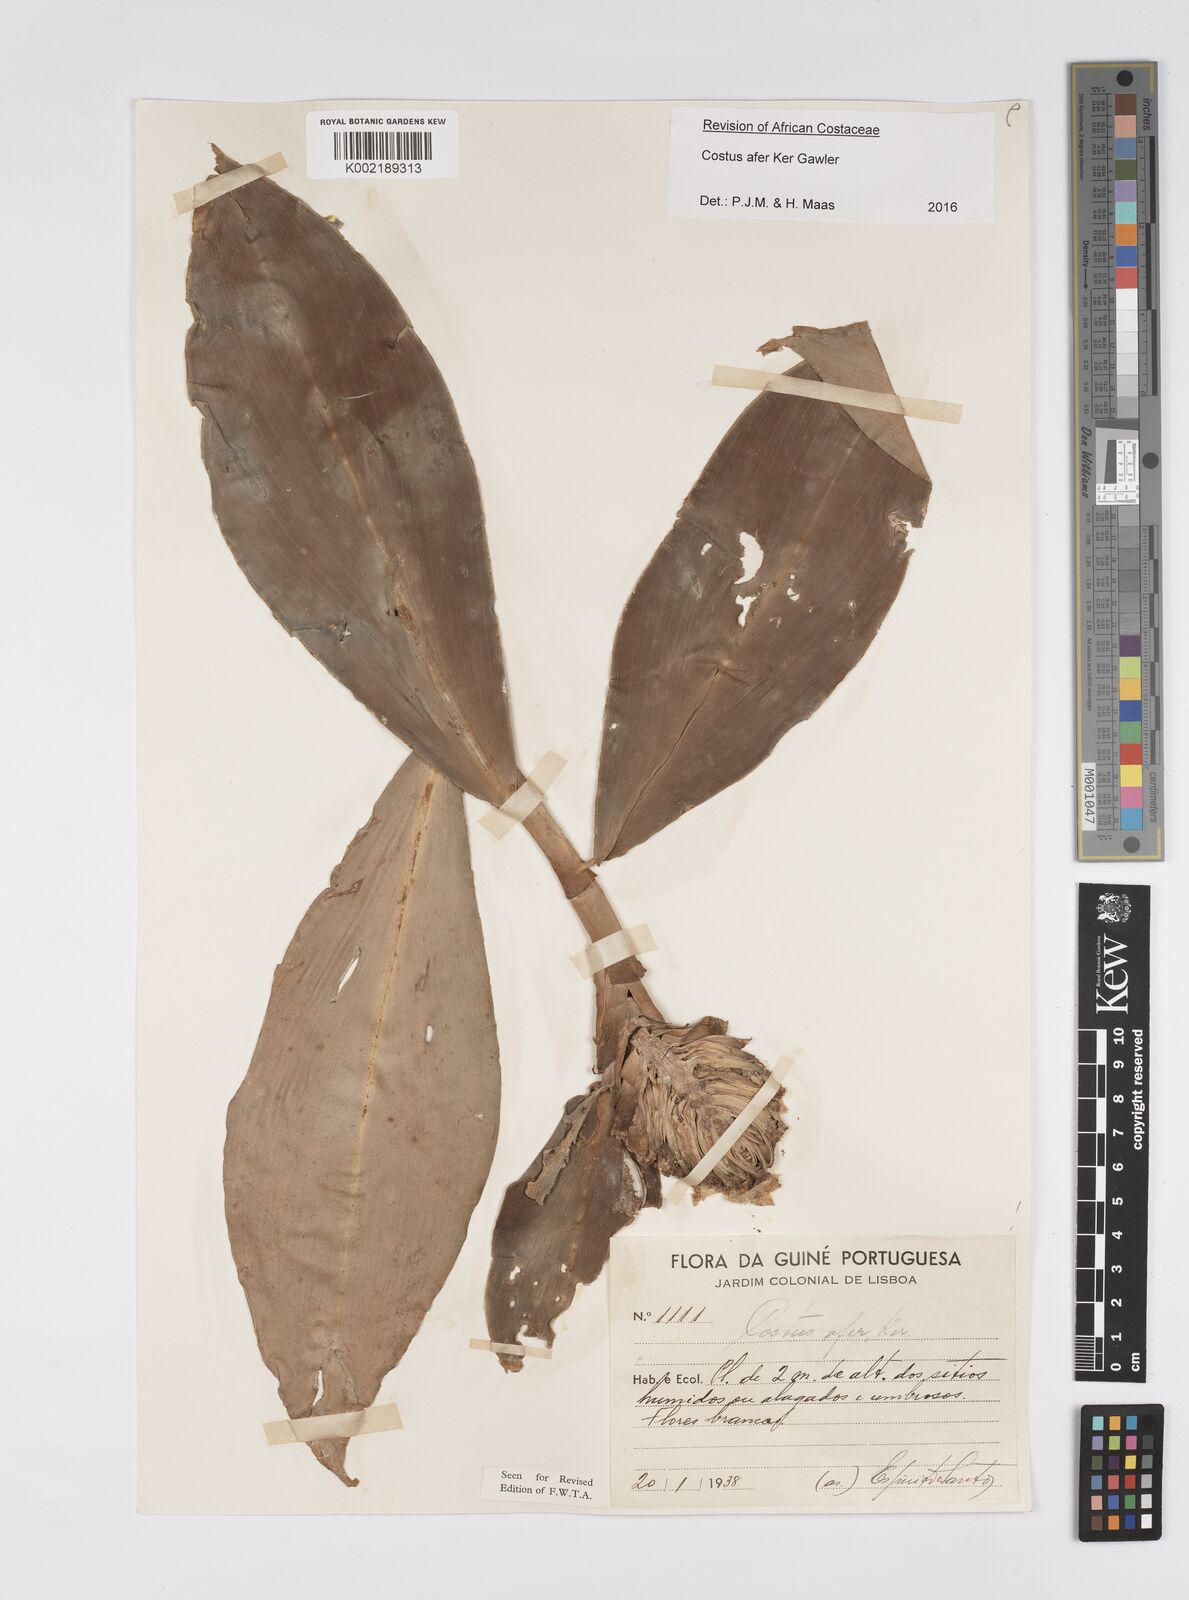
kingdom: Plantae
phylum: Tracheophyta
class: Liliopsida
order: Zingiberales
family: Costaceae
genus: Costus
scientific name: Costus afer
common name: Spiral-ginger
